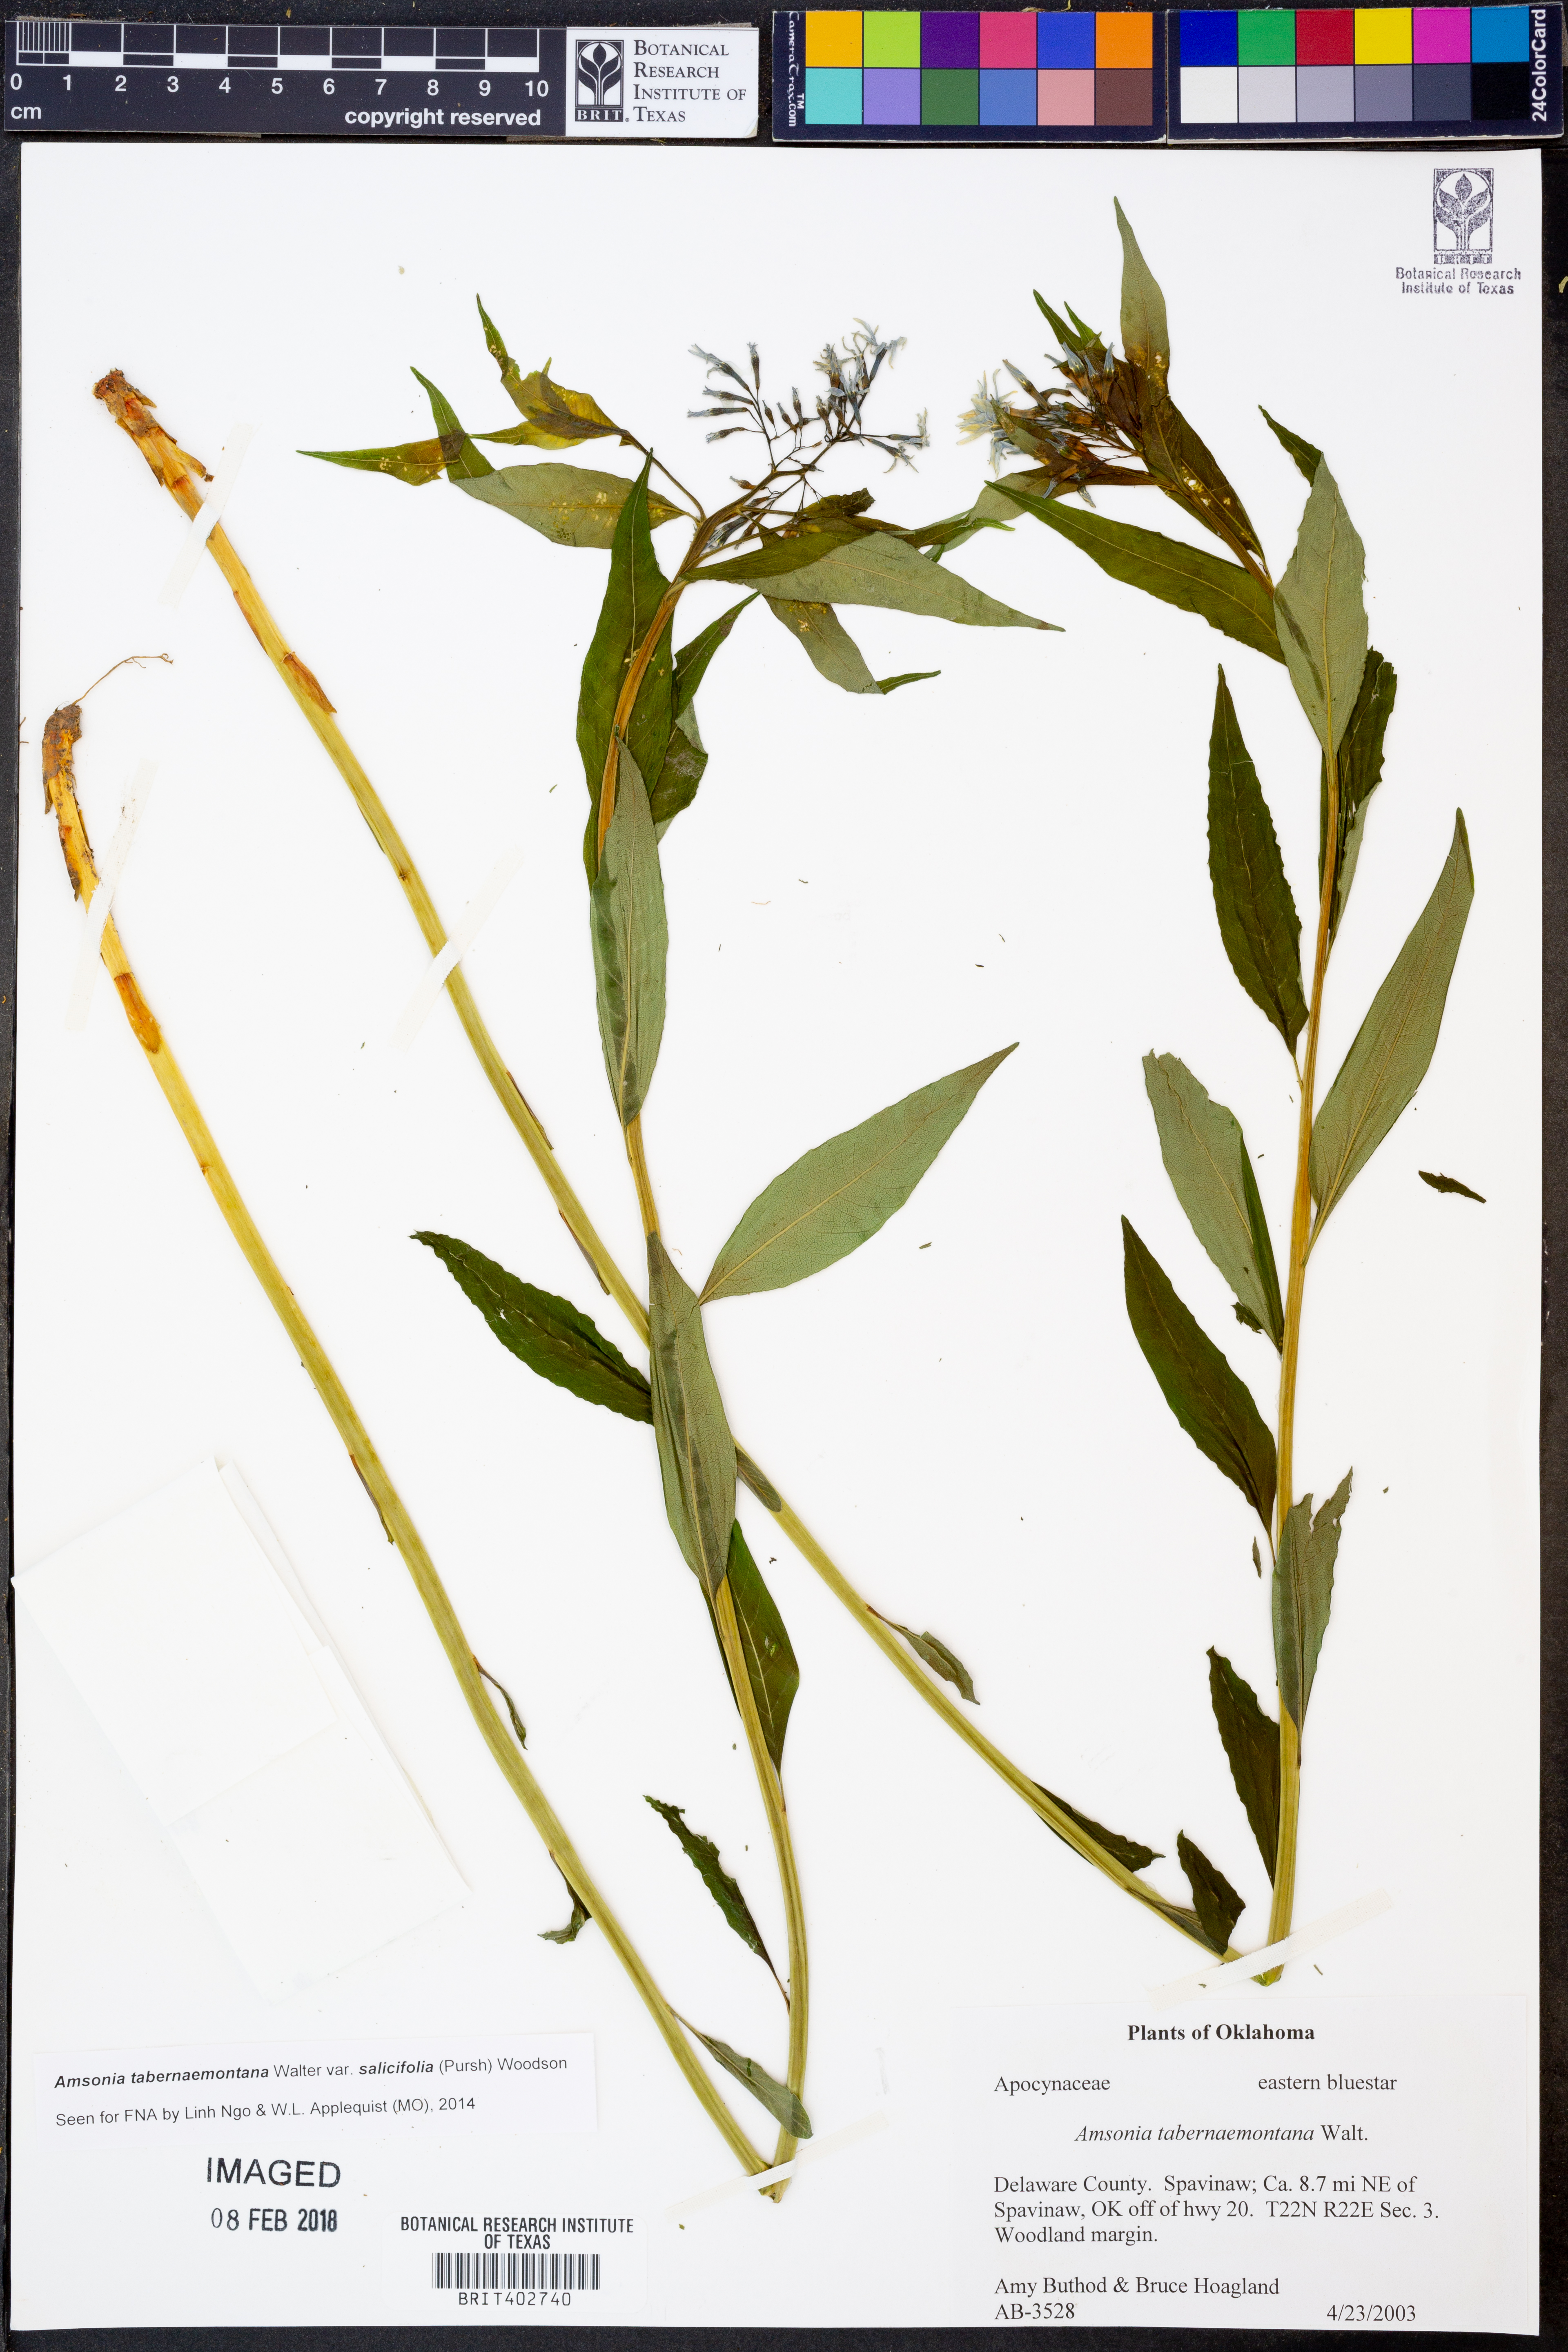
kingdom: Plantae
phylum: Tracheophyta
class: Magnoliopsida
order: Gentianales
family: Apocynaceae
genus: Amsonia
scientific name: Amsonia tabernaemontana
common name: Texas-star
